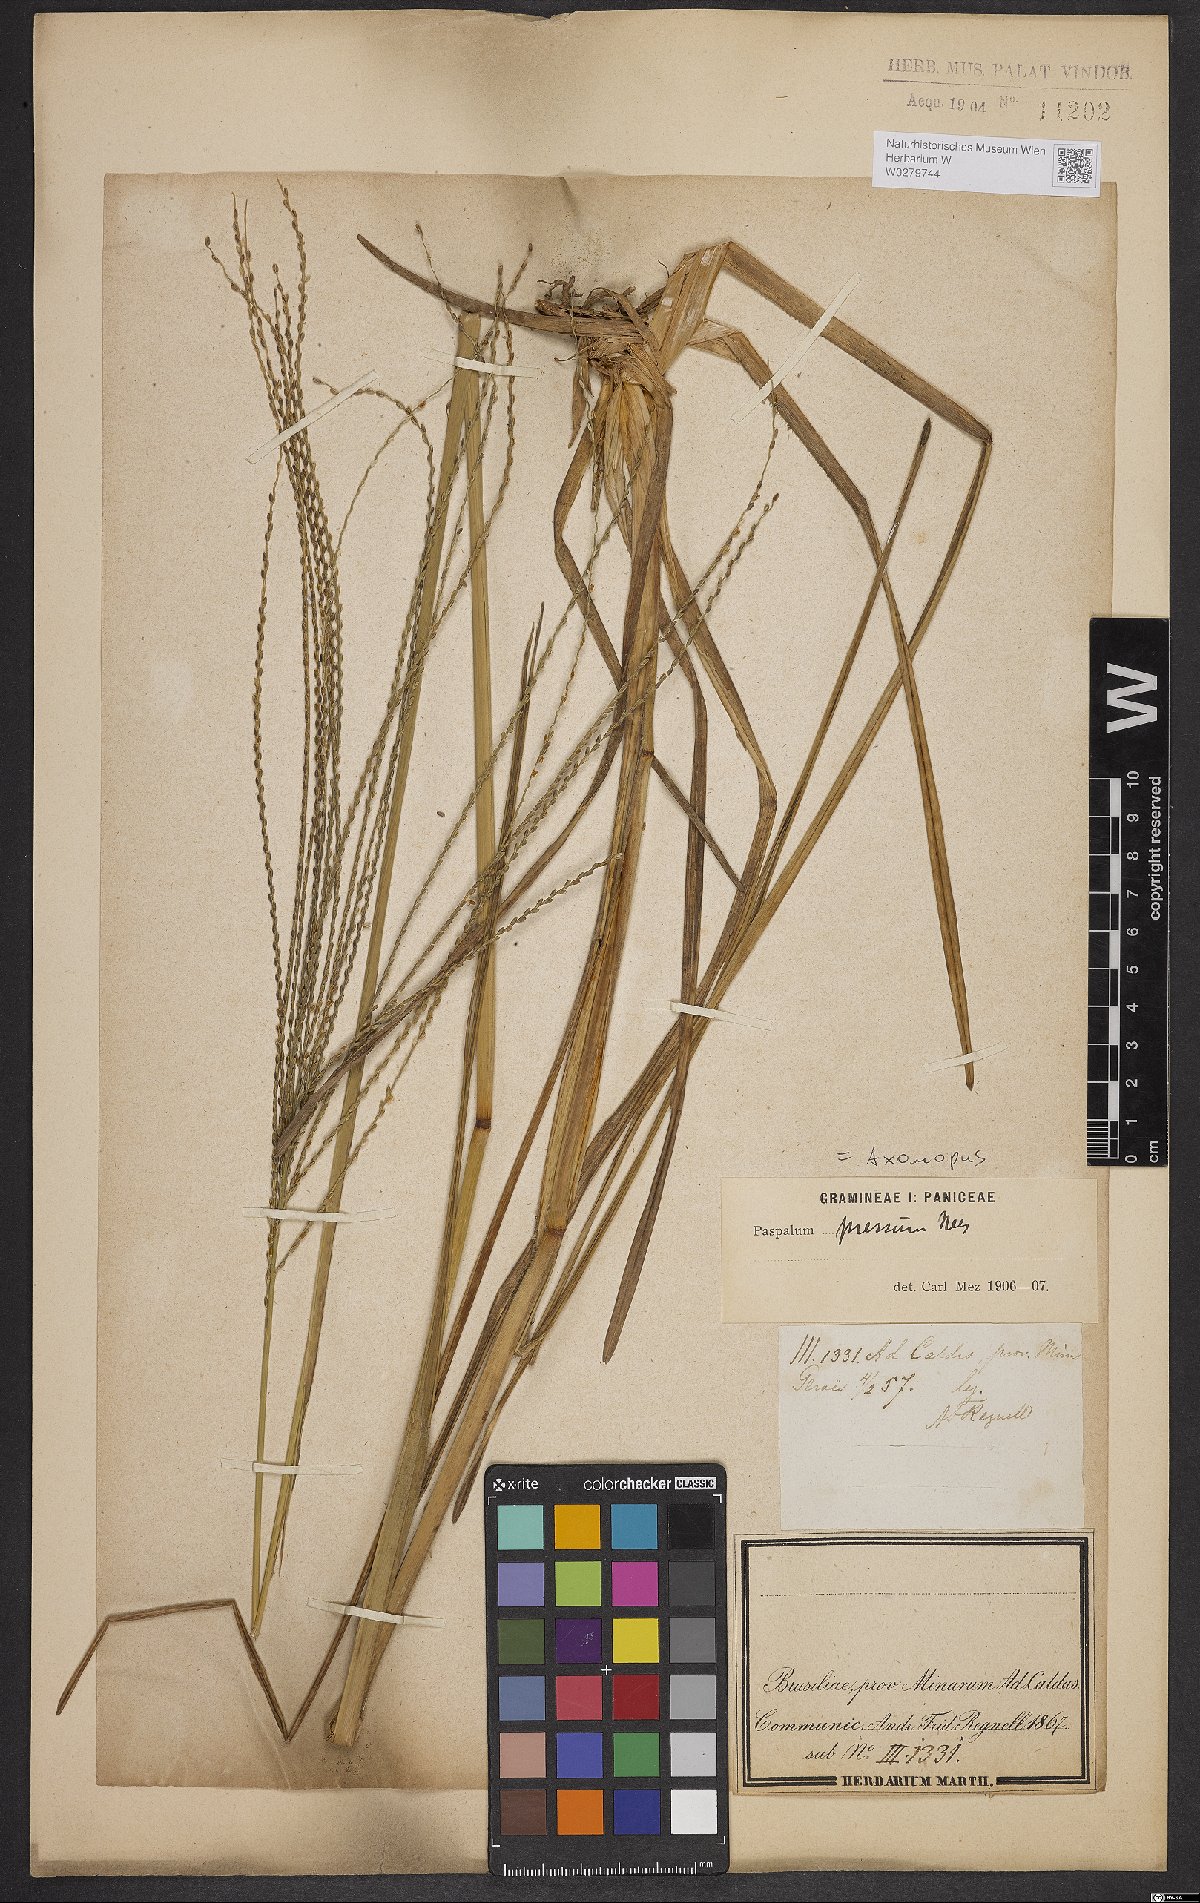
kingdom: Plantae
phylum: Tracheophyta
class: Liliopsida
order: Poales
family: Poaceae
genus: Axonopus
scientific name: Axonopus pressus
